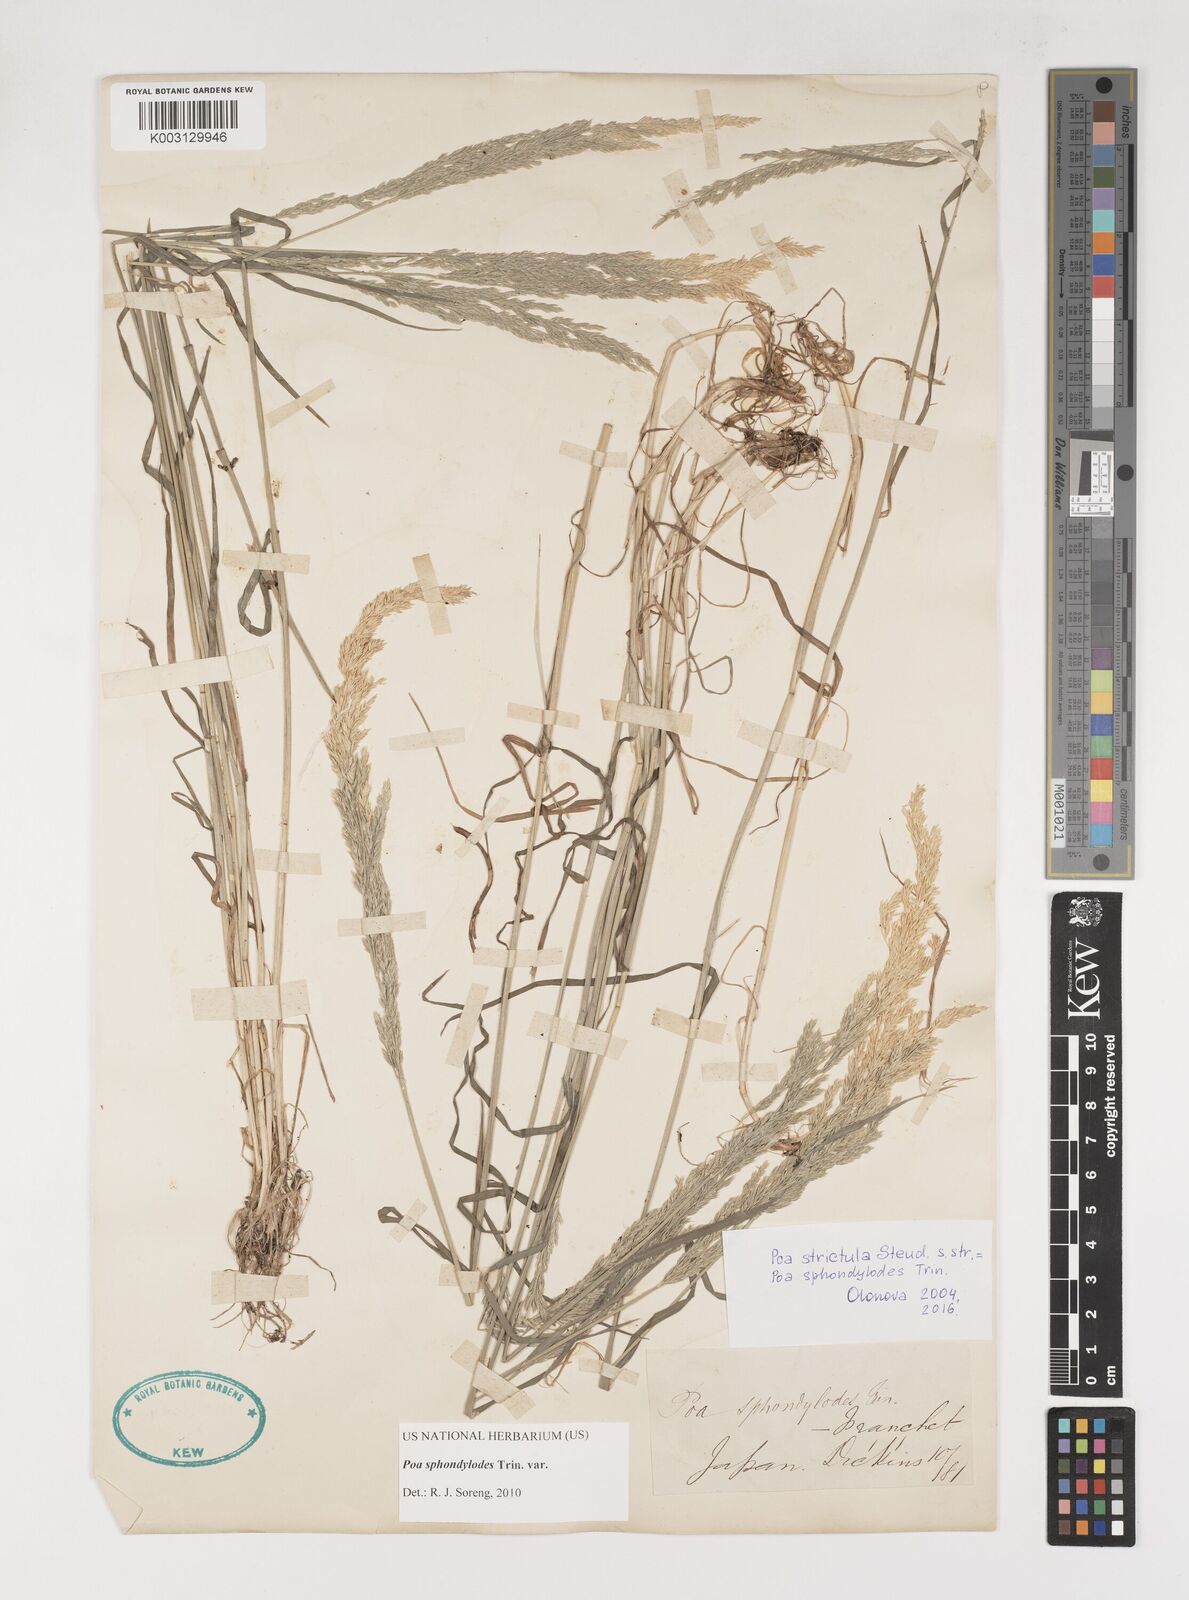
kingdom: Plantae
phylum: Tracheophyta
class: Liliopsida
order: Poales
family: Poaceae
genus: Poa
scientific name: Poa sphondylodes
